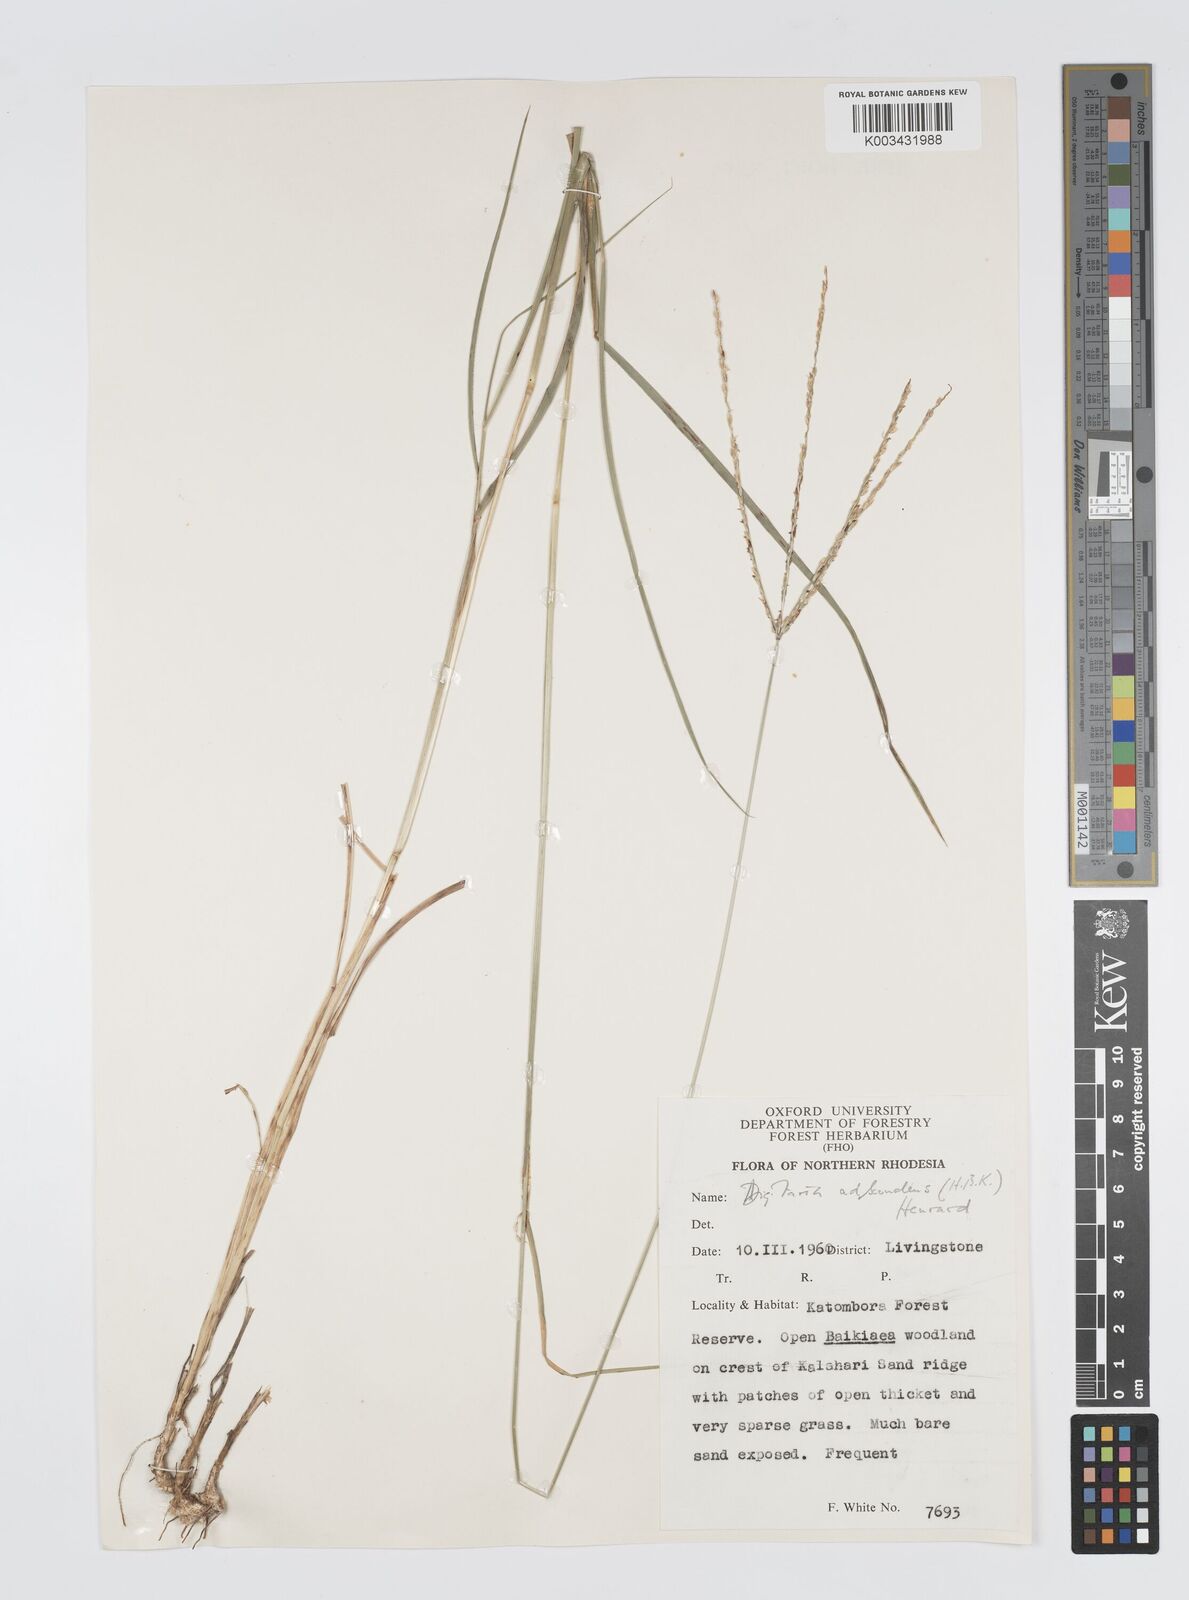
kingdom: Plantae
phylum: Tracheophyta
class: Liliopsida
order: Poales
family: Poaceae
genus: Digitaria
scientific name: Digitaria milanjiana
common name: Madagascar crabgrass
